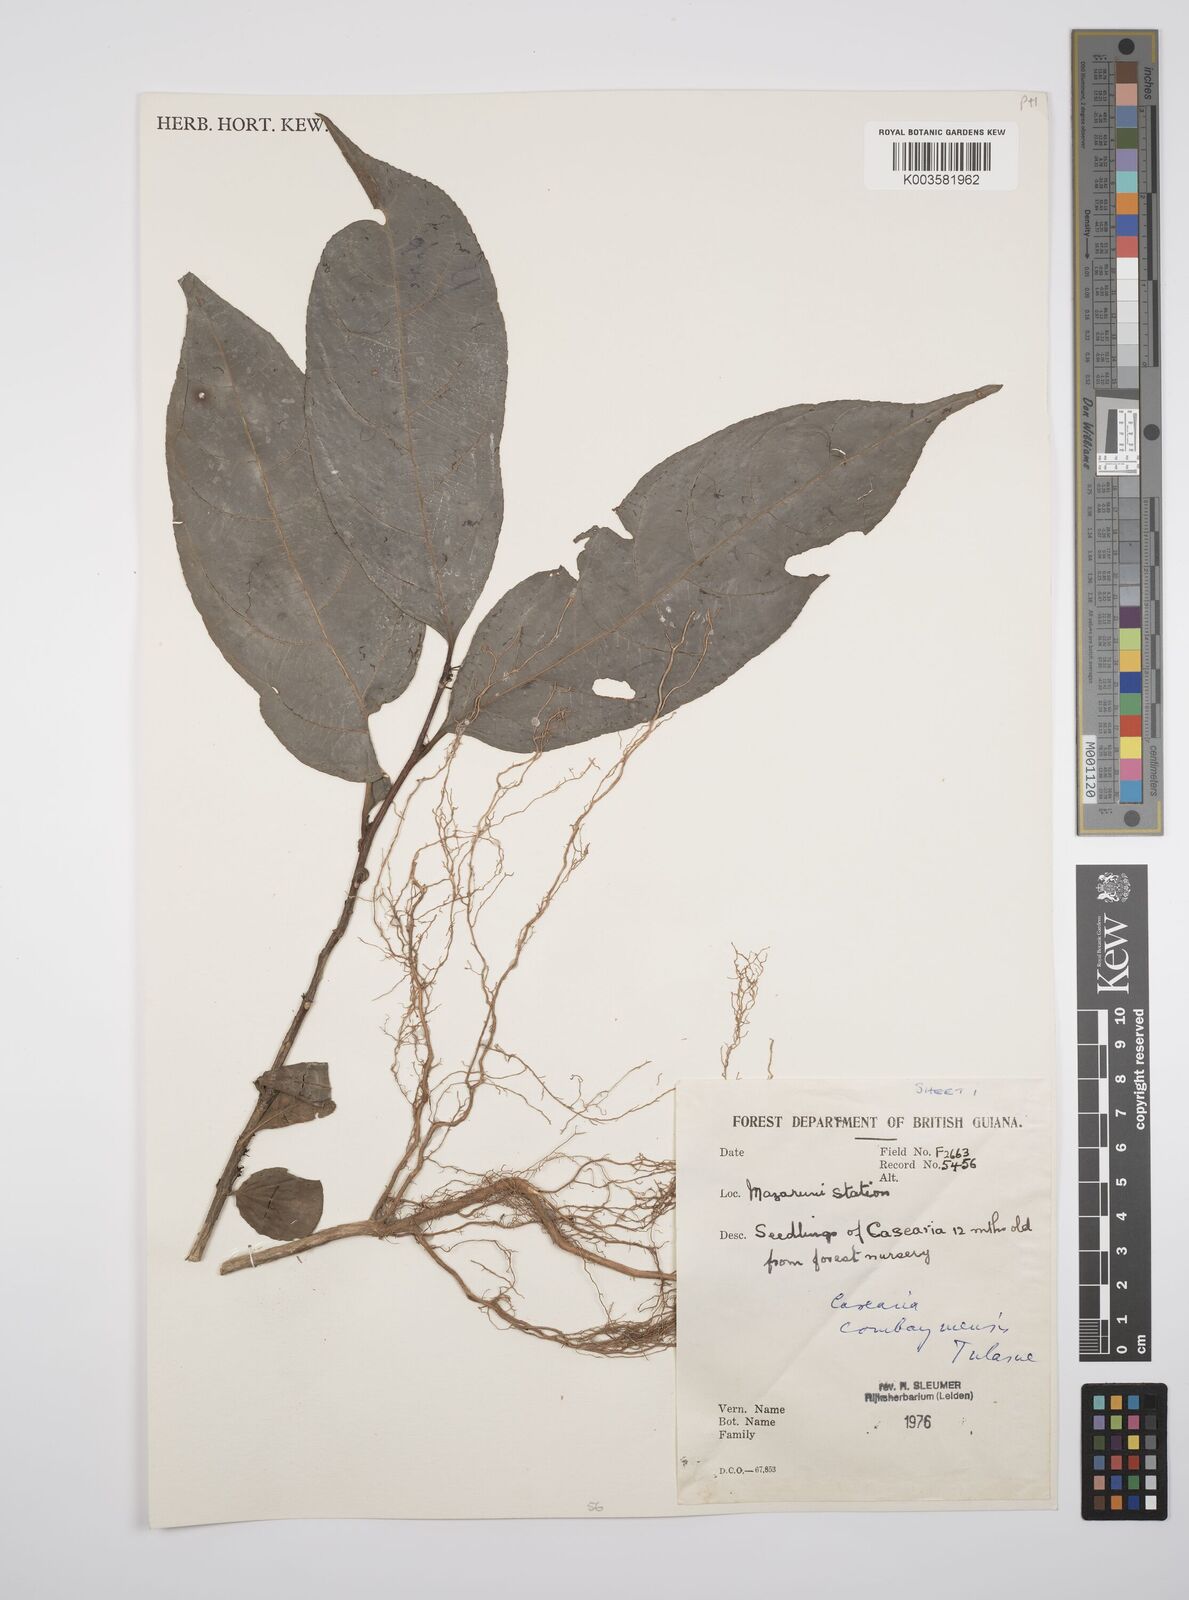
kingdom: Plantae
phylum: Tracheophyta
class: Magnoliopsida
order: Malpighiales
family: Salicaceae
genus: Casearia
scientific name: Casearia combaymensis
